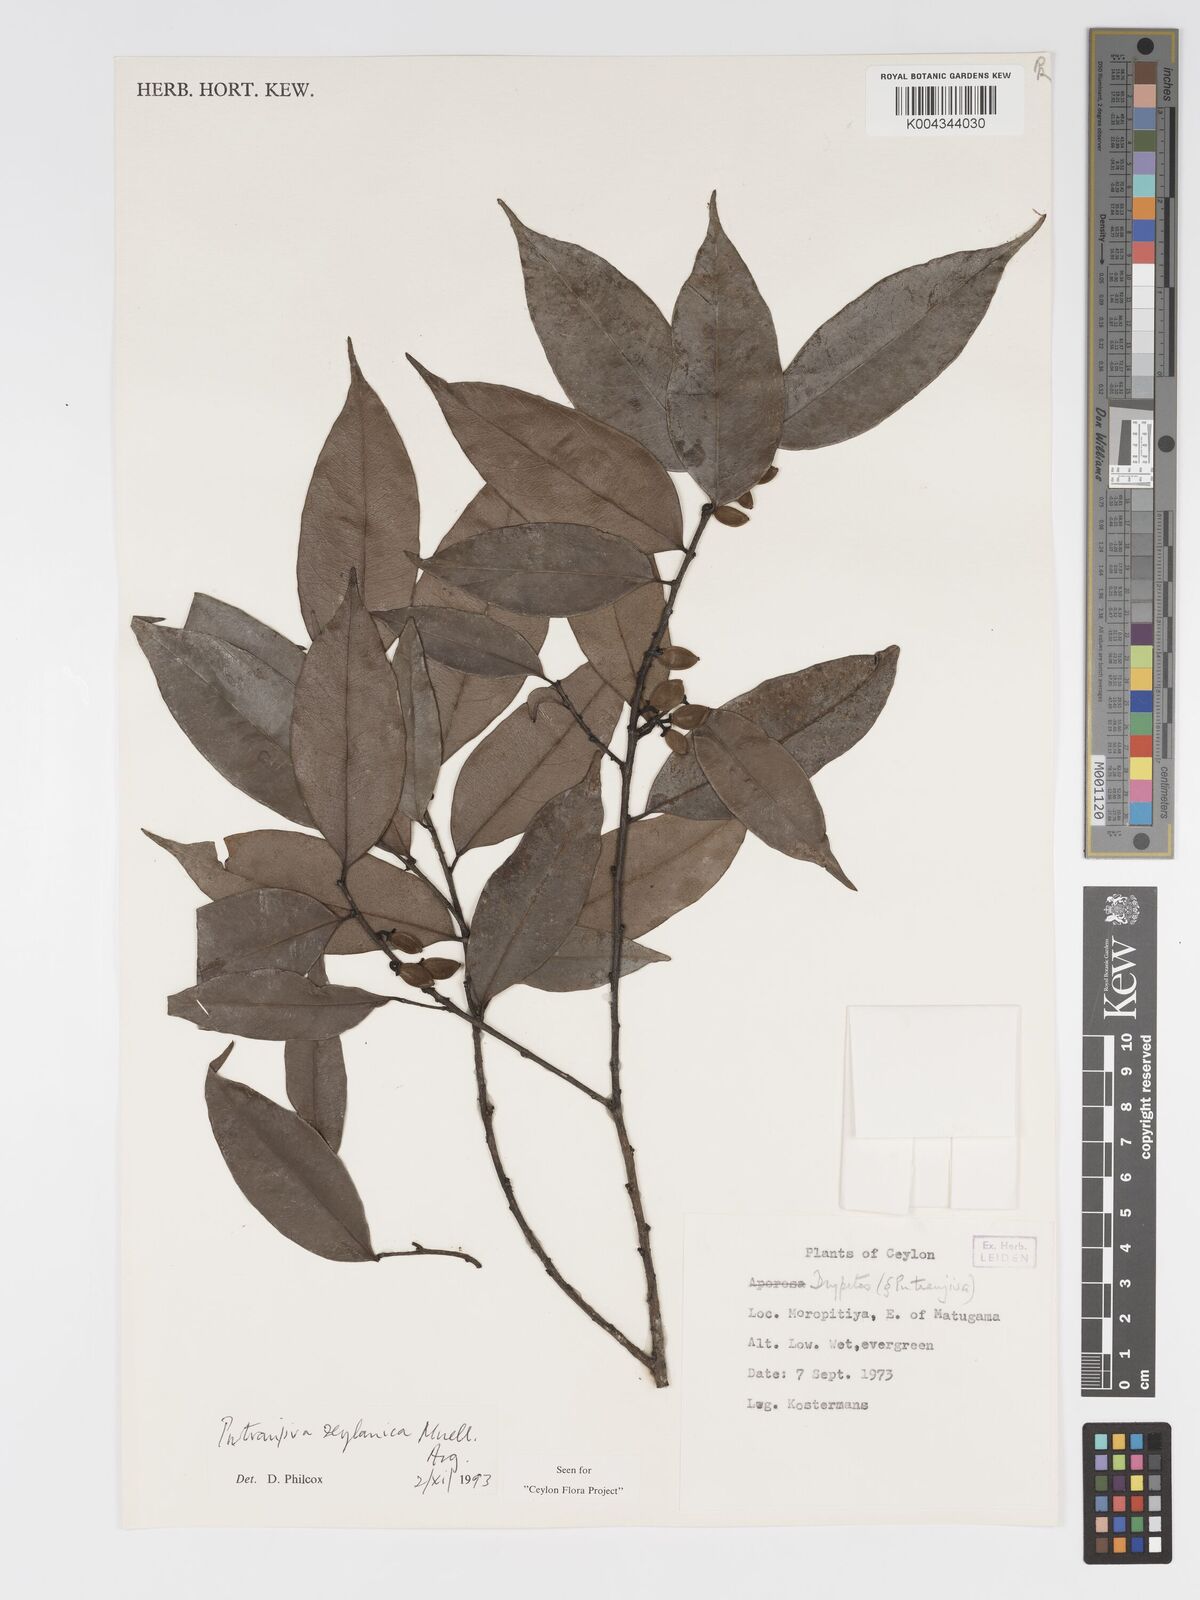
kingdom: Plantae
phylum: Tracheophyta
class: Magnoliopsida
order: Malpighiales
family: Putranjivaceae
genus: Putranjiva
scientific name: Putranjiva zeylanica
